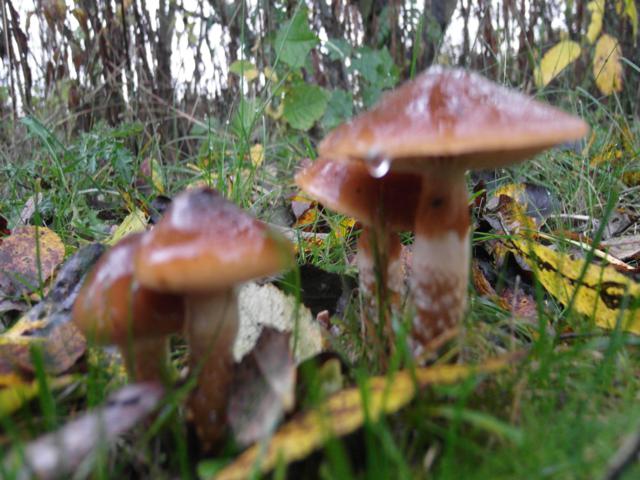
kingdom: Fungi
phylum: Basidiomycota
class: Agaricomycetes
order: Agaricales
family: Cortinariaceae
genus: Cortinarius
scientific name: Cortinarius trivialis
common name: brunslimet slørhat
